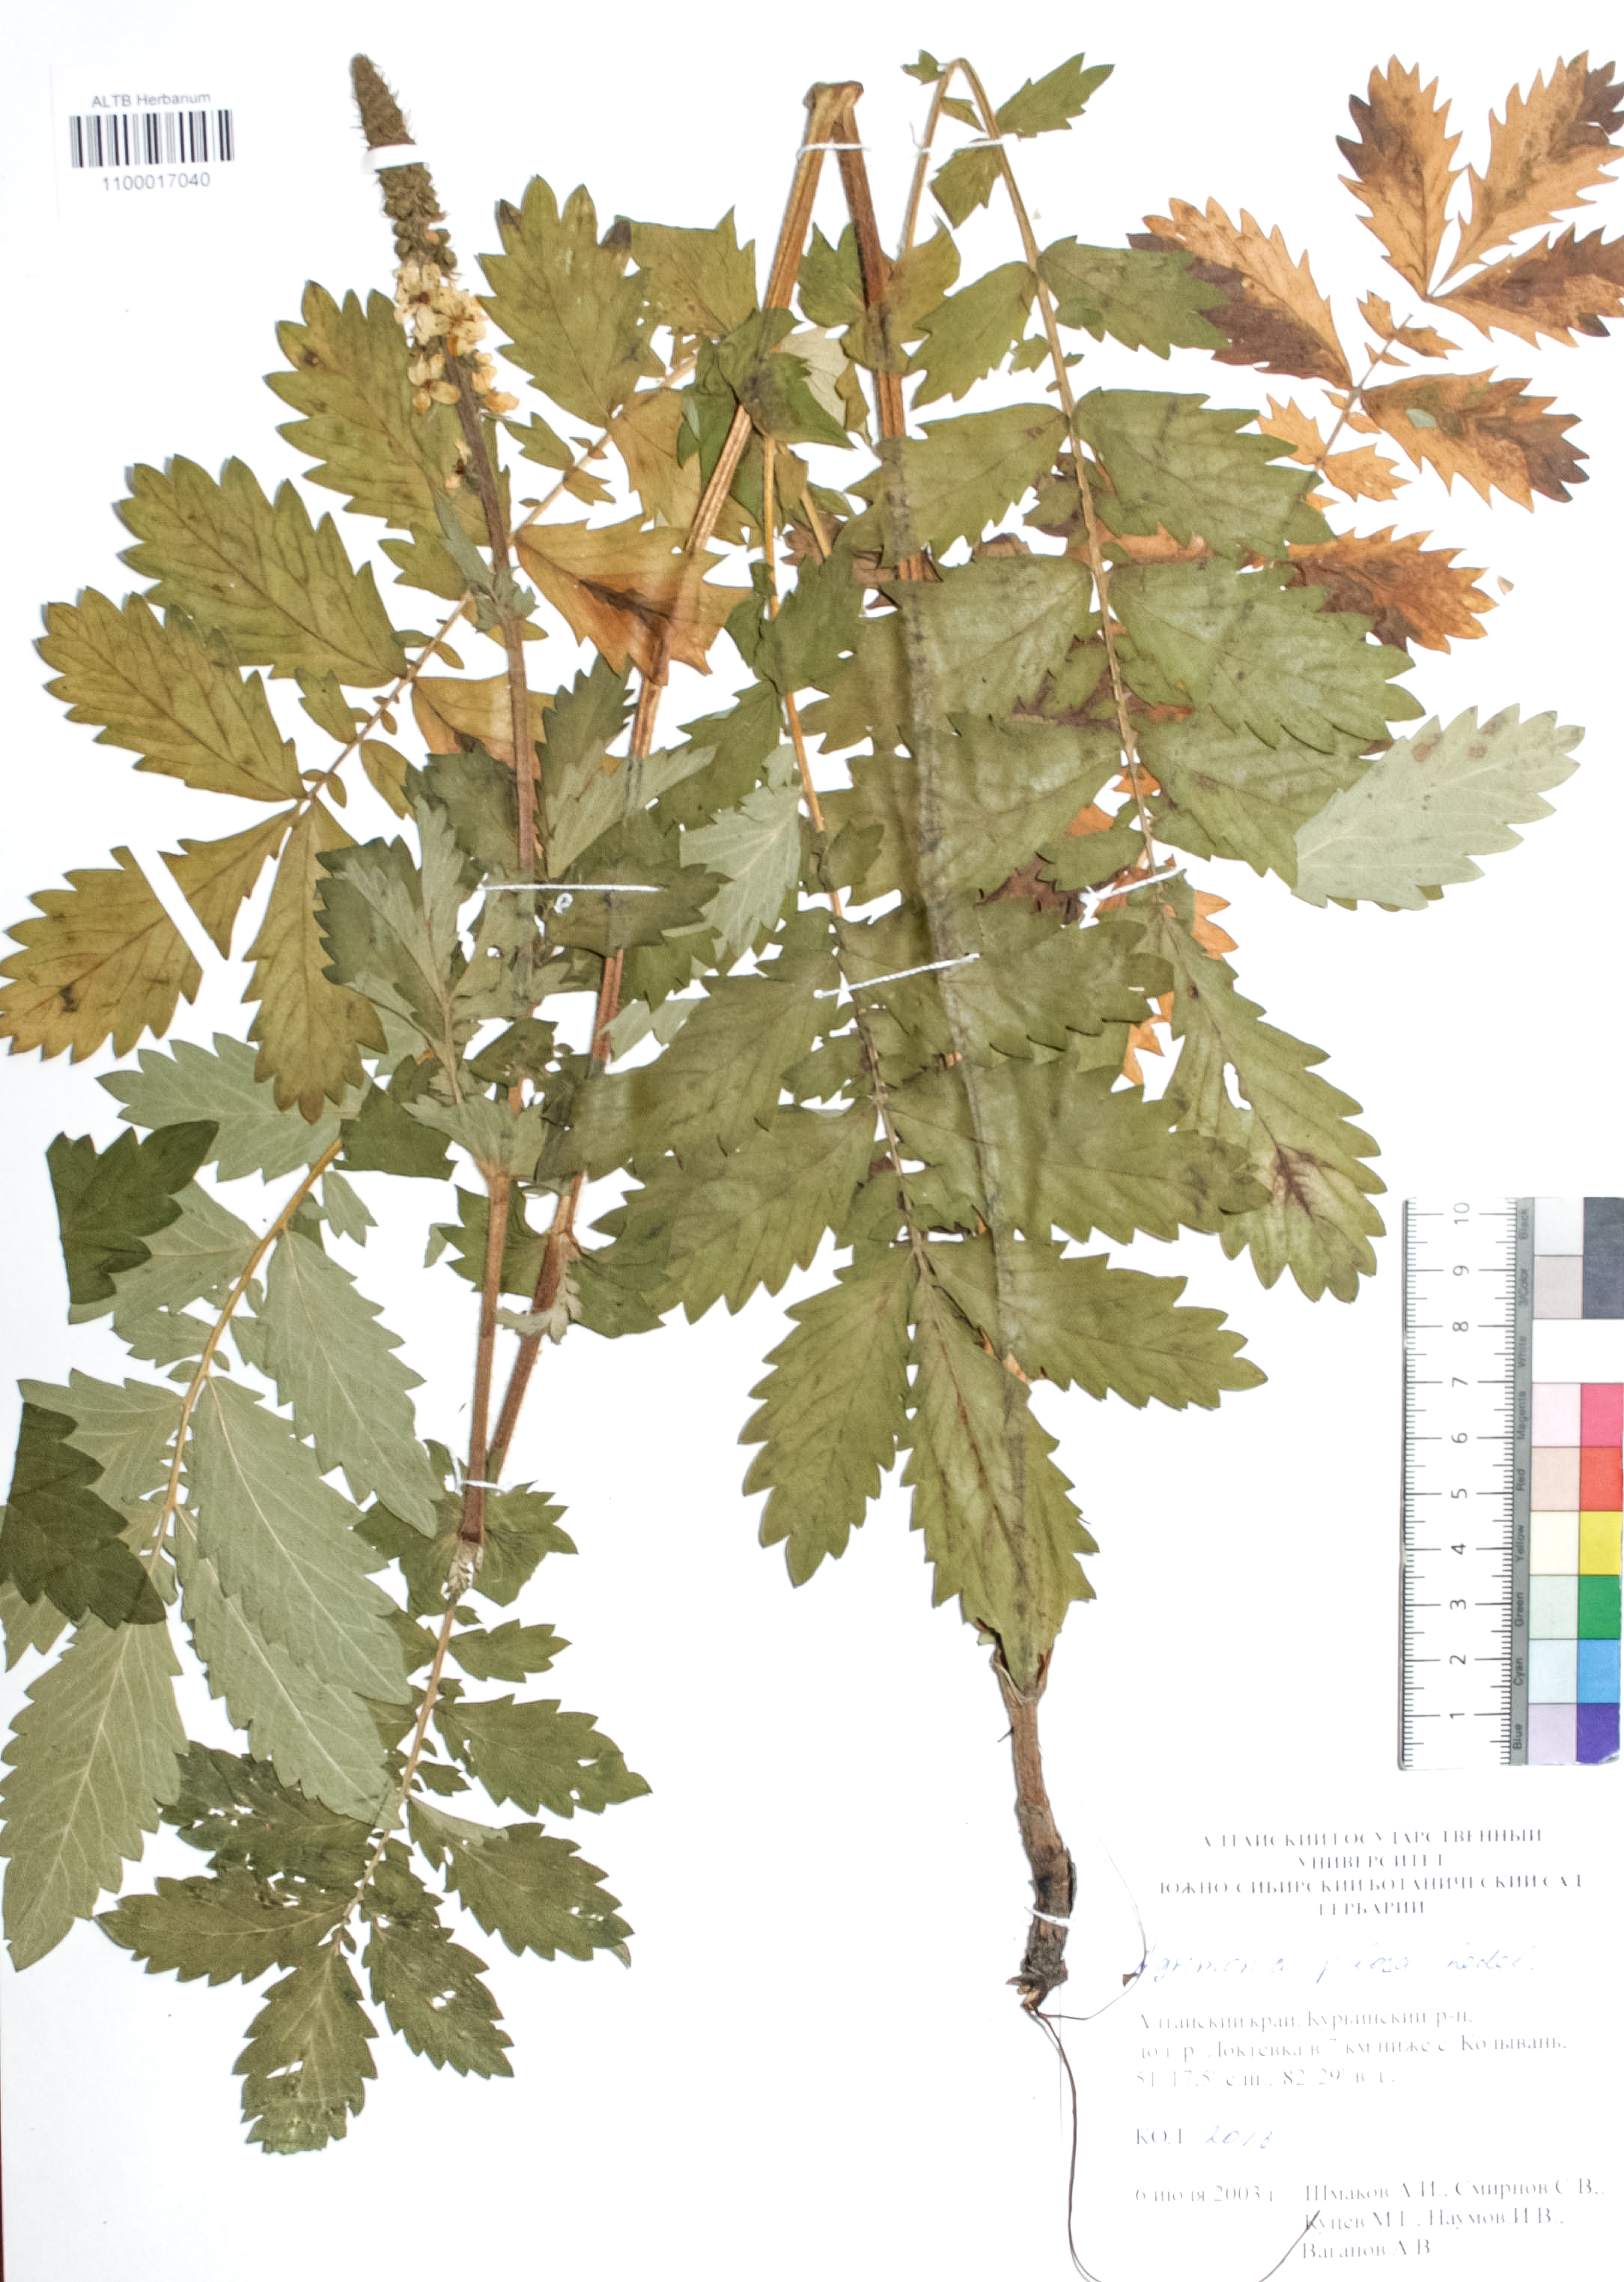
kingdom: Plantae
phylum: Tracheophyta
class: Magnoliopsida
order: Rosales
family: Rosaceae
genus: Agrimonia
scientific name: Agrimonia pilosa
